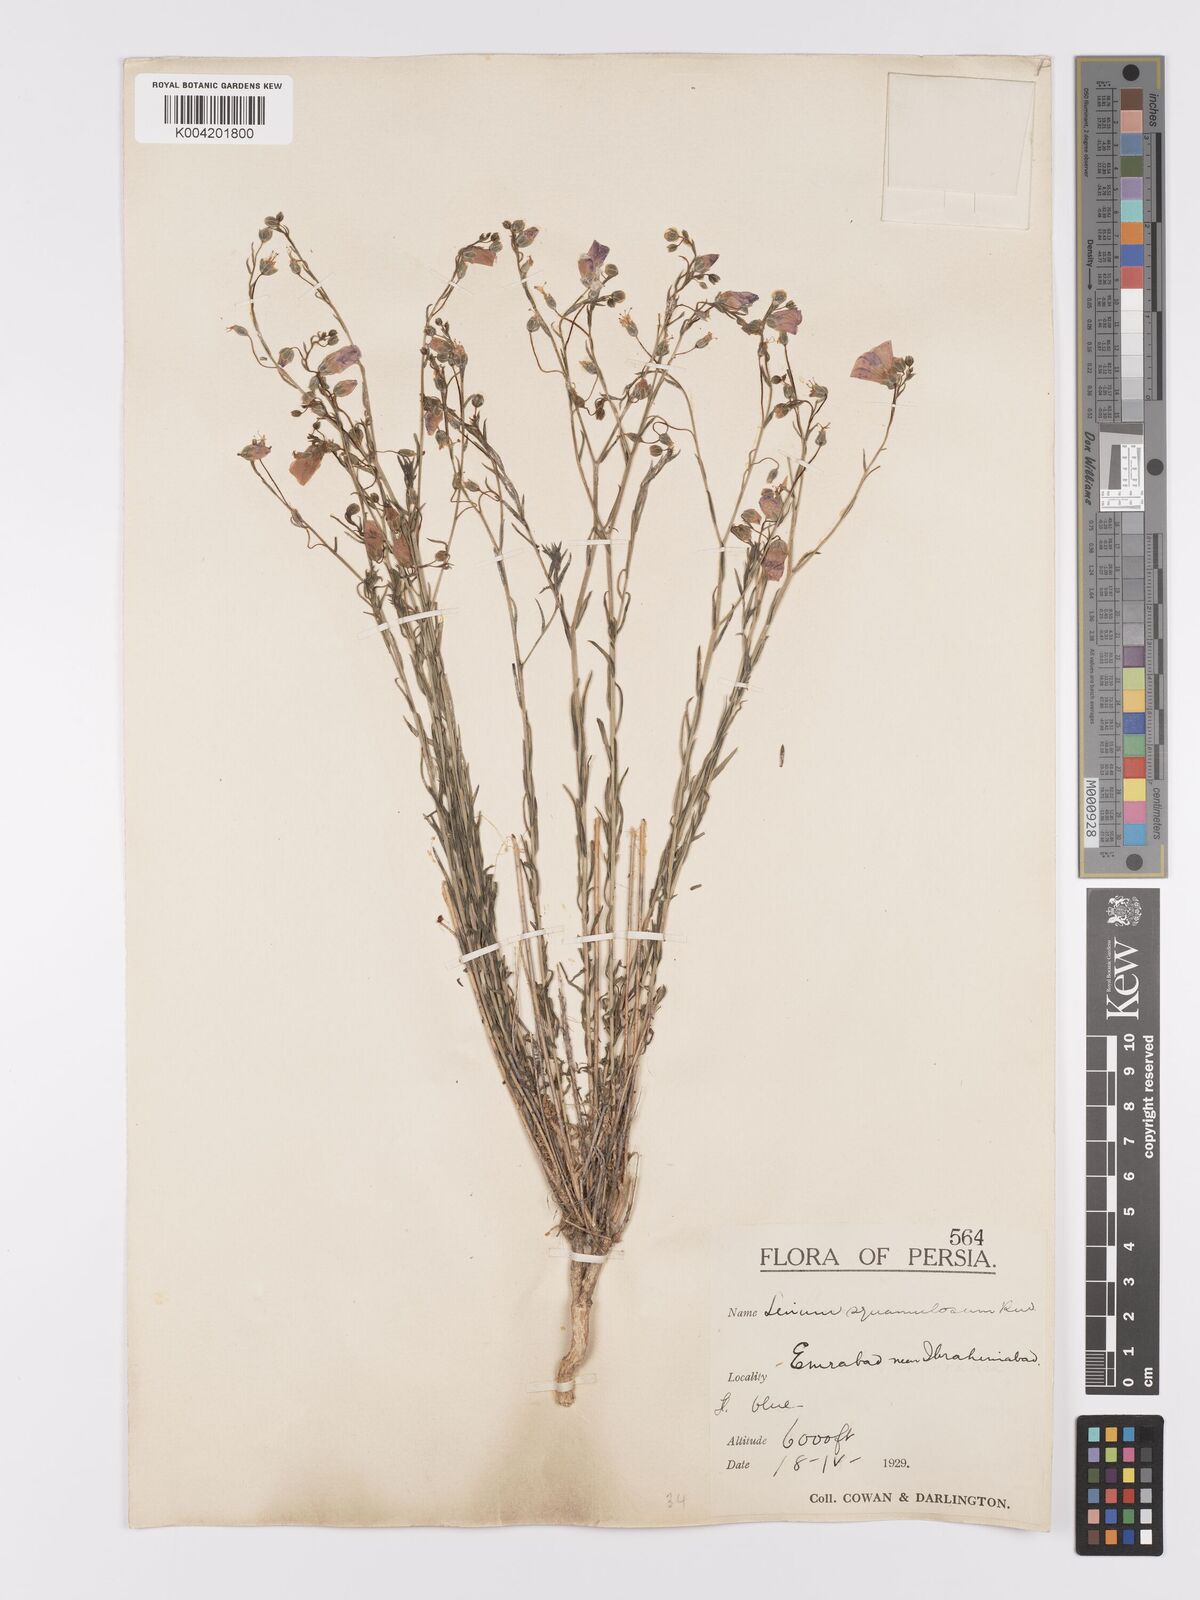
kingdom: Plantae
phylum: Tracheophyta
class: Magnoliopsida
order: Malpighiales
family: Linaceae
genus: Linum
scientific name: Linum
